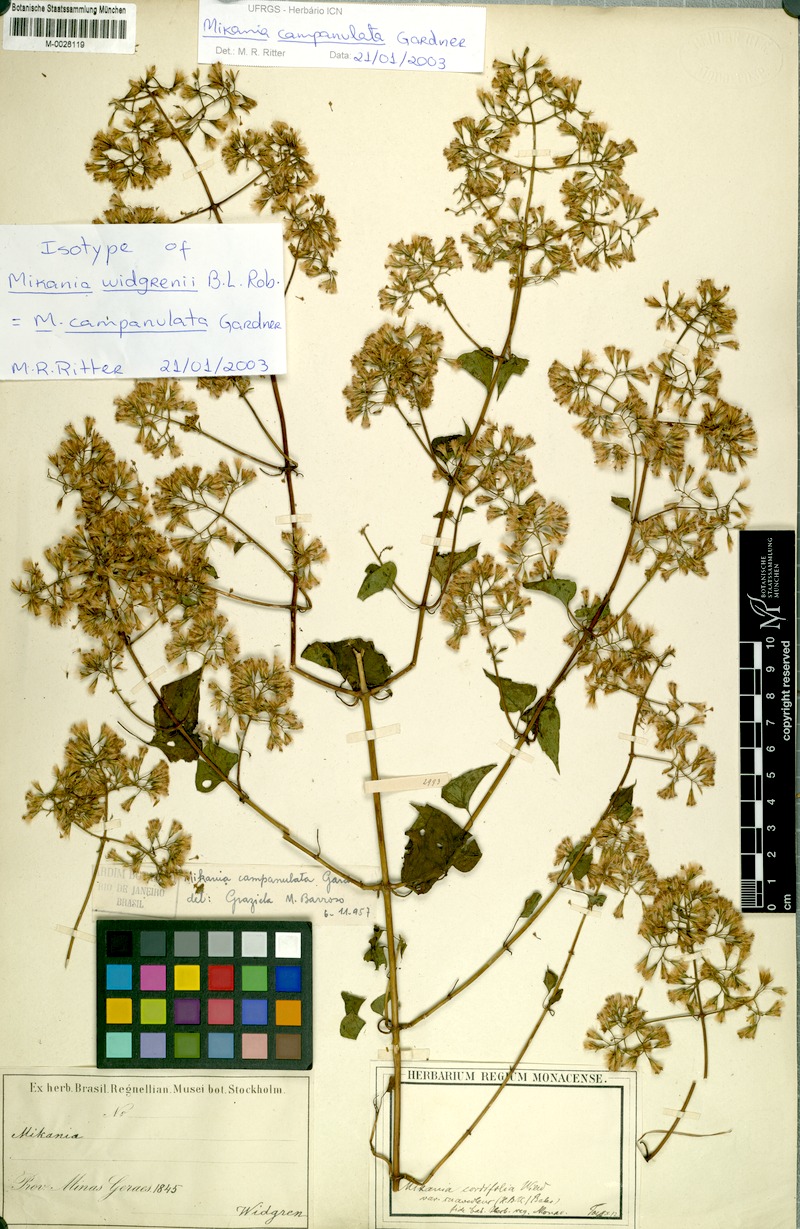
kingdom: Plantae
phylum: Tracheophyta
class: Magnoliopsida
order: Asterales
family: Asteraceae
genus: Mikania
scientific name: Mikania campanulata
